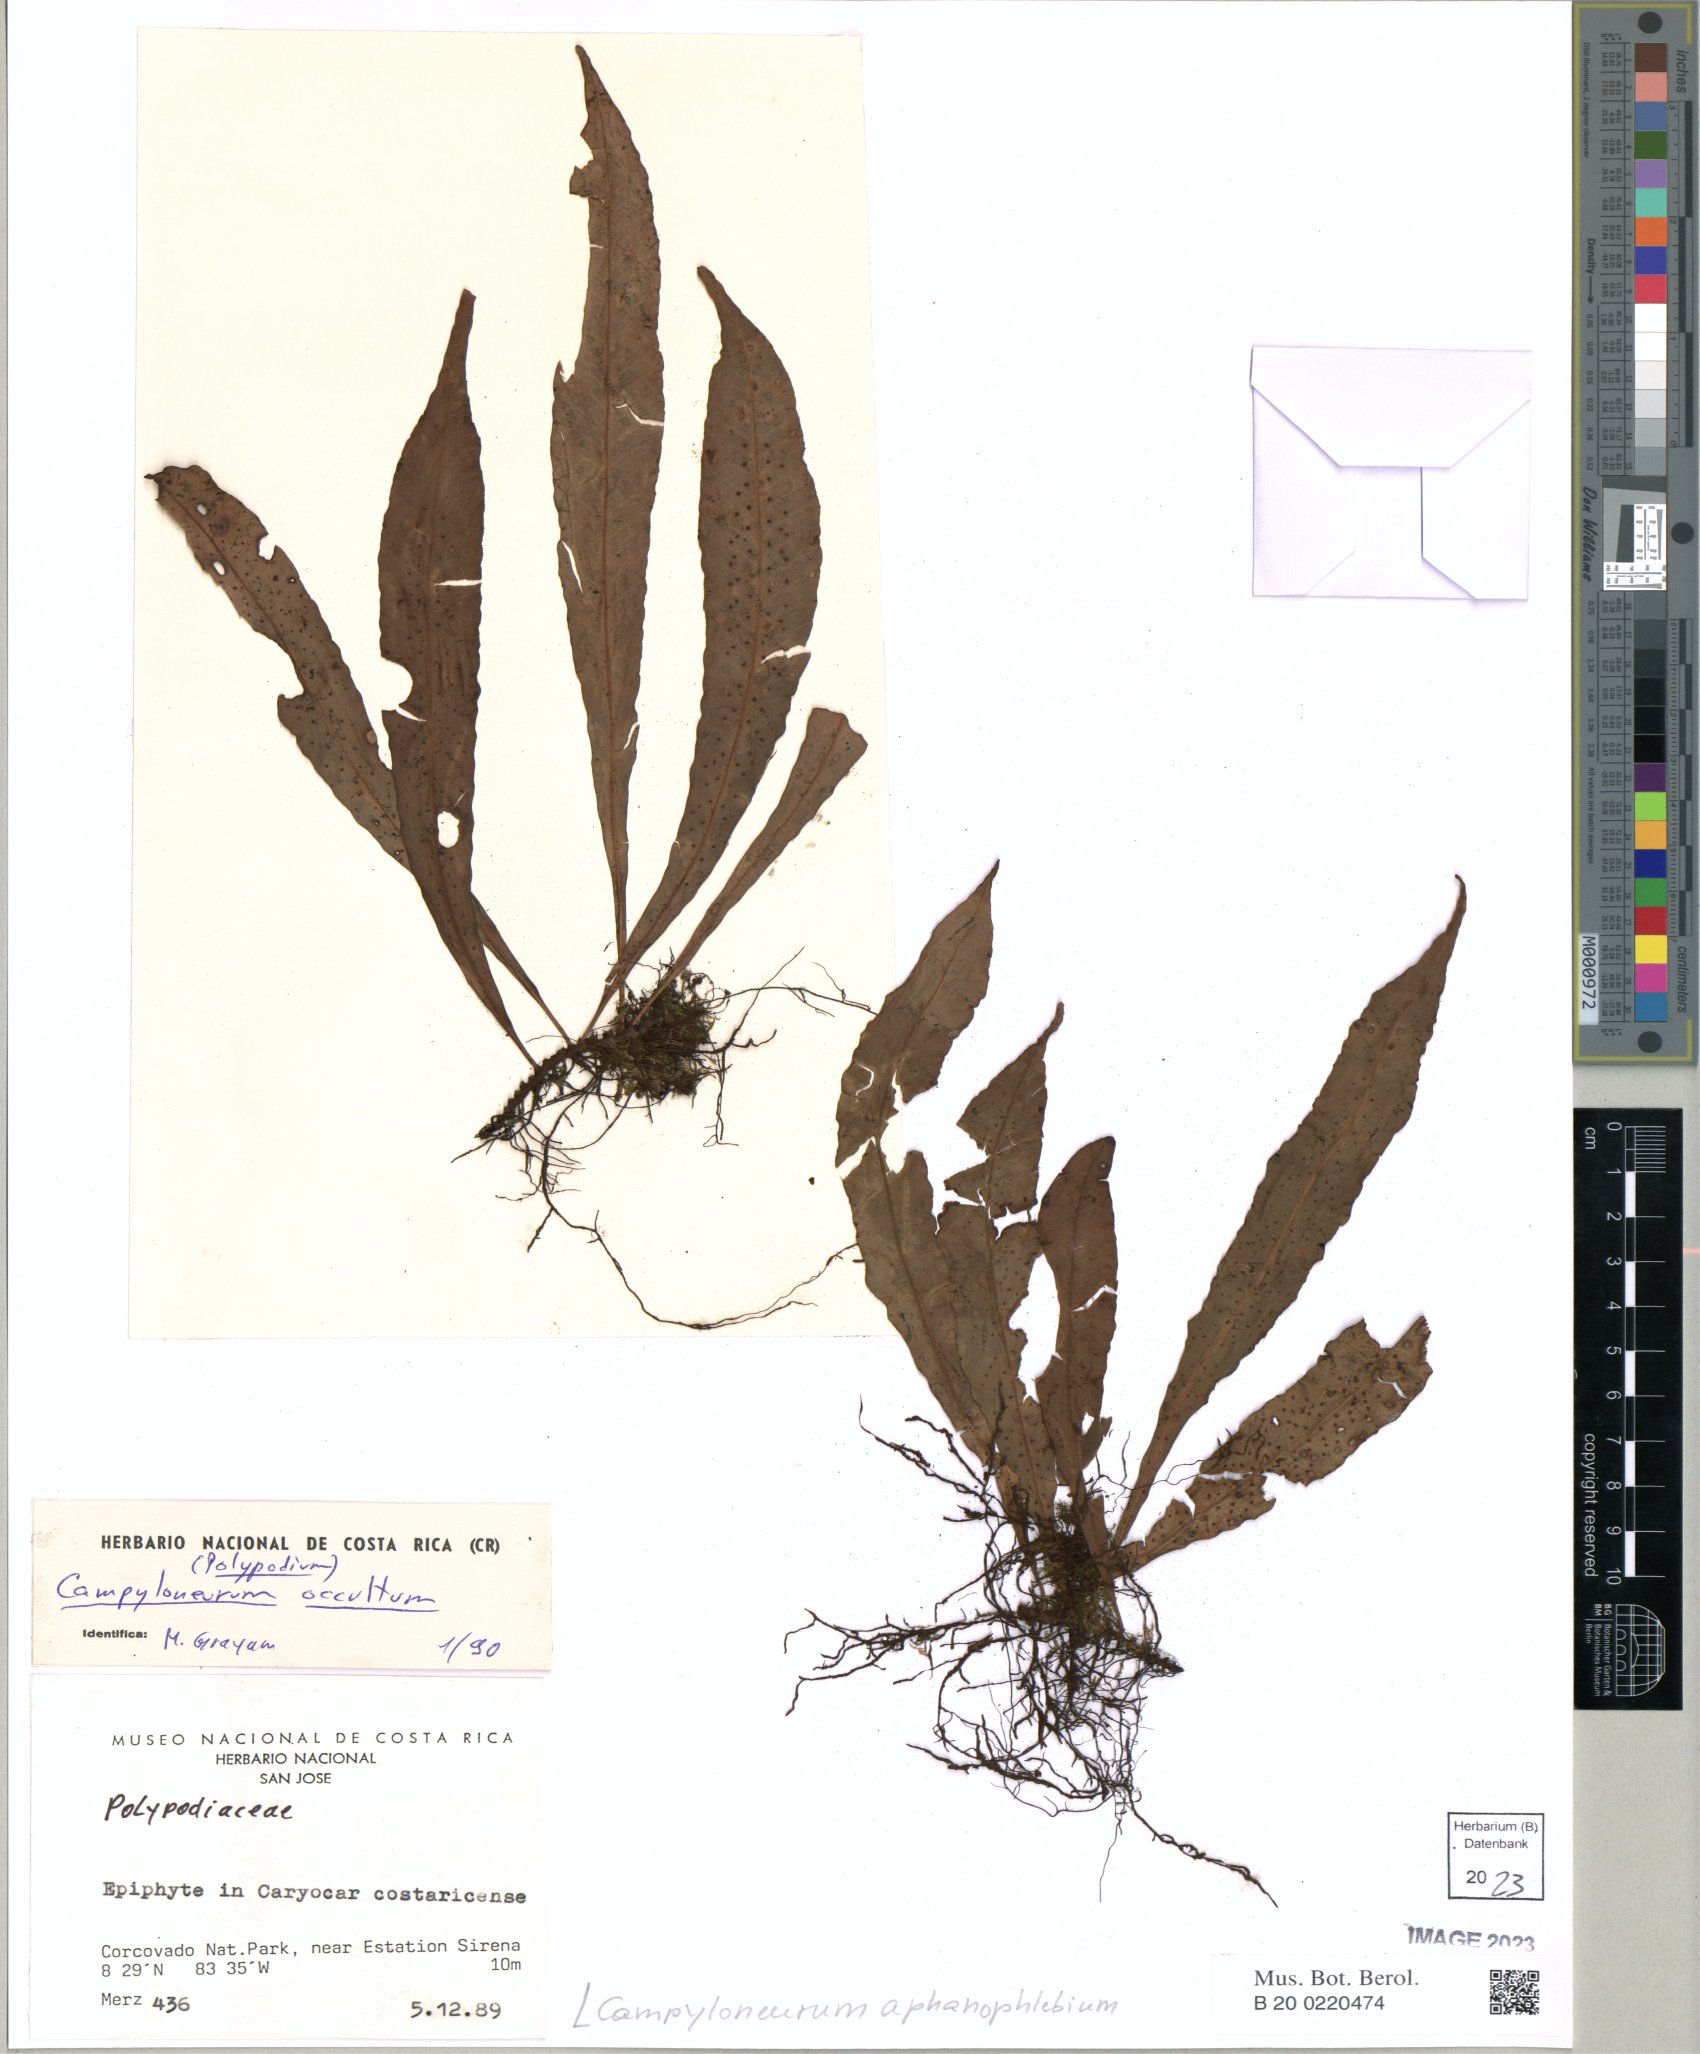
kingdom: Plantae
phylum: Tracheophyta
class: Polypodiopsida
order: Polypodiales
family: Polypodiaceae
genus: Campyloneurum
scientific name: Campyloneurum aphanophlebium
